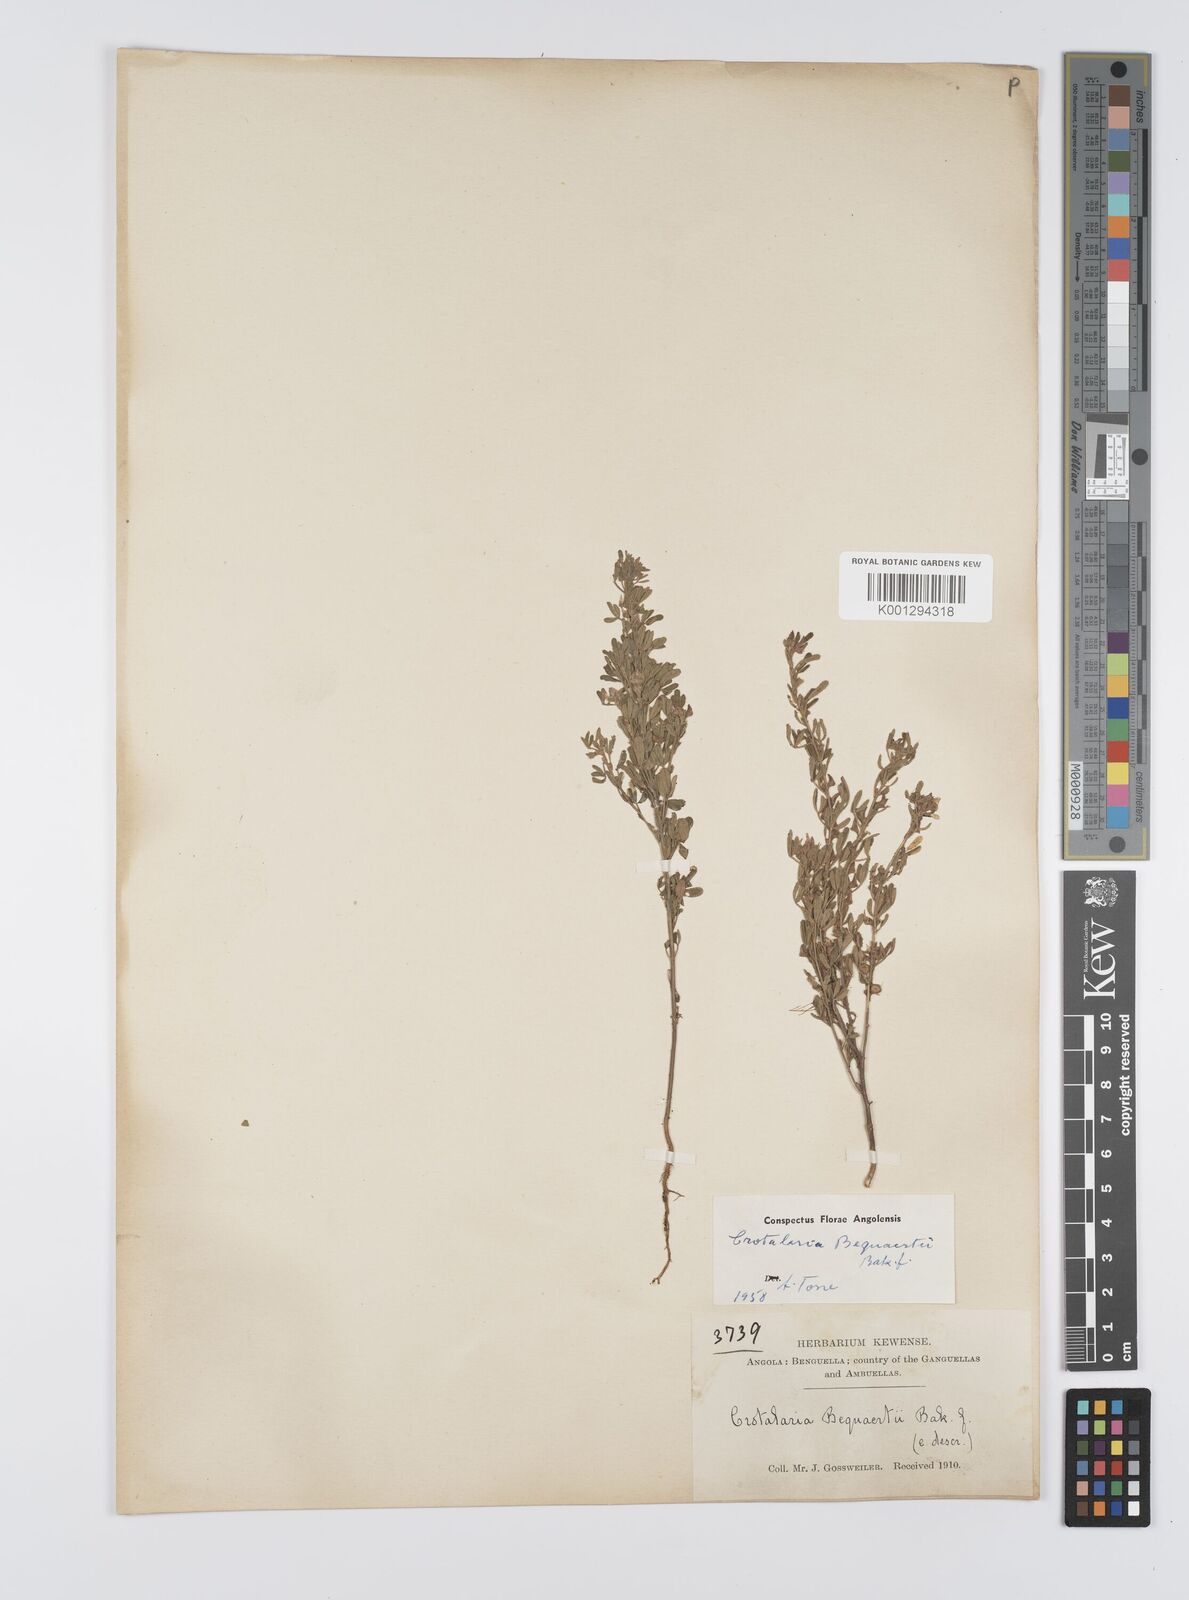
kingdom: Plantae
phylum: Tracheophyta
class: Magnoliopsida
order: Fabales
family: Fabaceae
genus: Crotalaria
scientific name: Crotalaria becquetii ex
